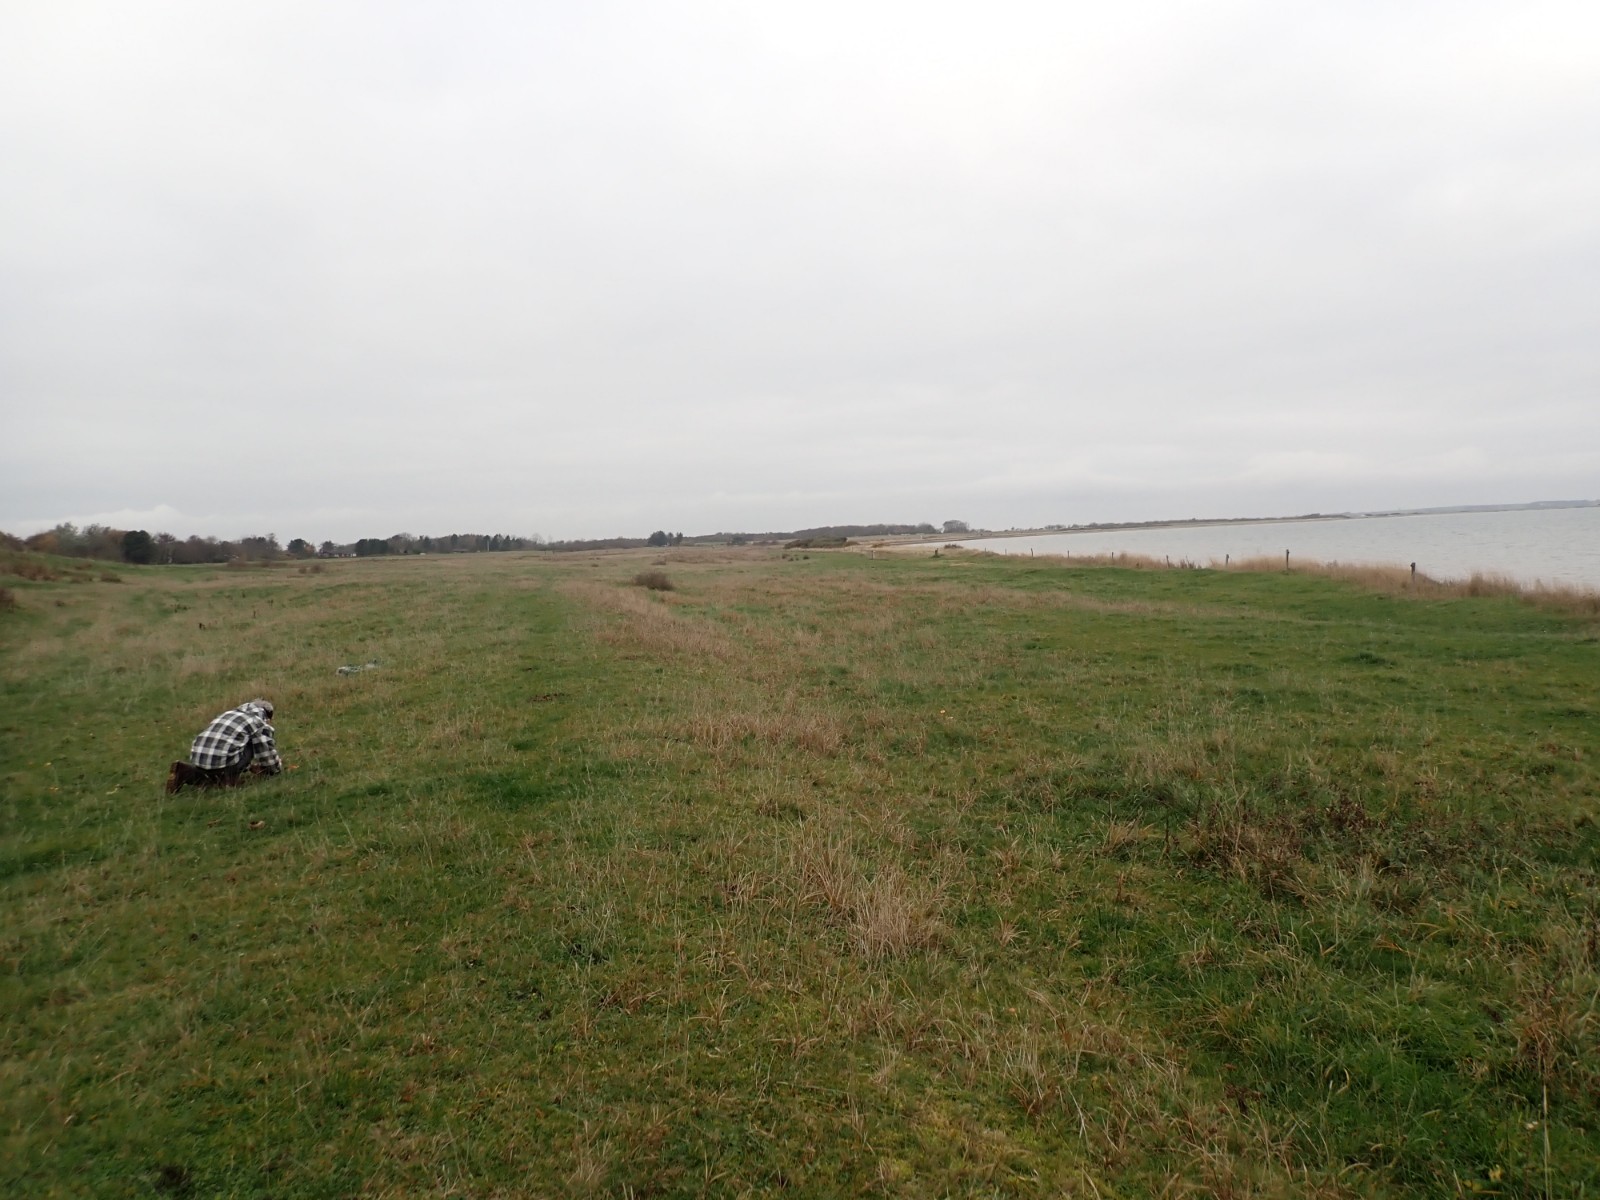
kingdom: Fungi
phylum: Basidiomycota
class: Agaricomycetes
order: Agaricales
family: Hygrophoraceae
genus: Gliophorus
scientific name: Gliophorus psittacinus
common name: papegøje-vokshat
